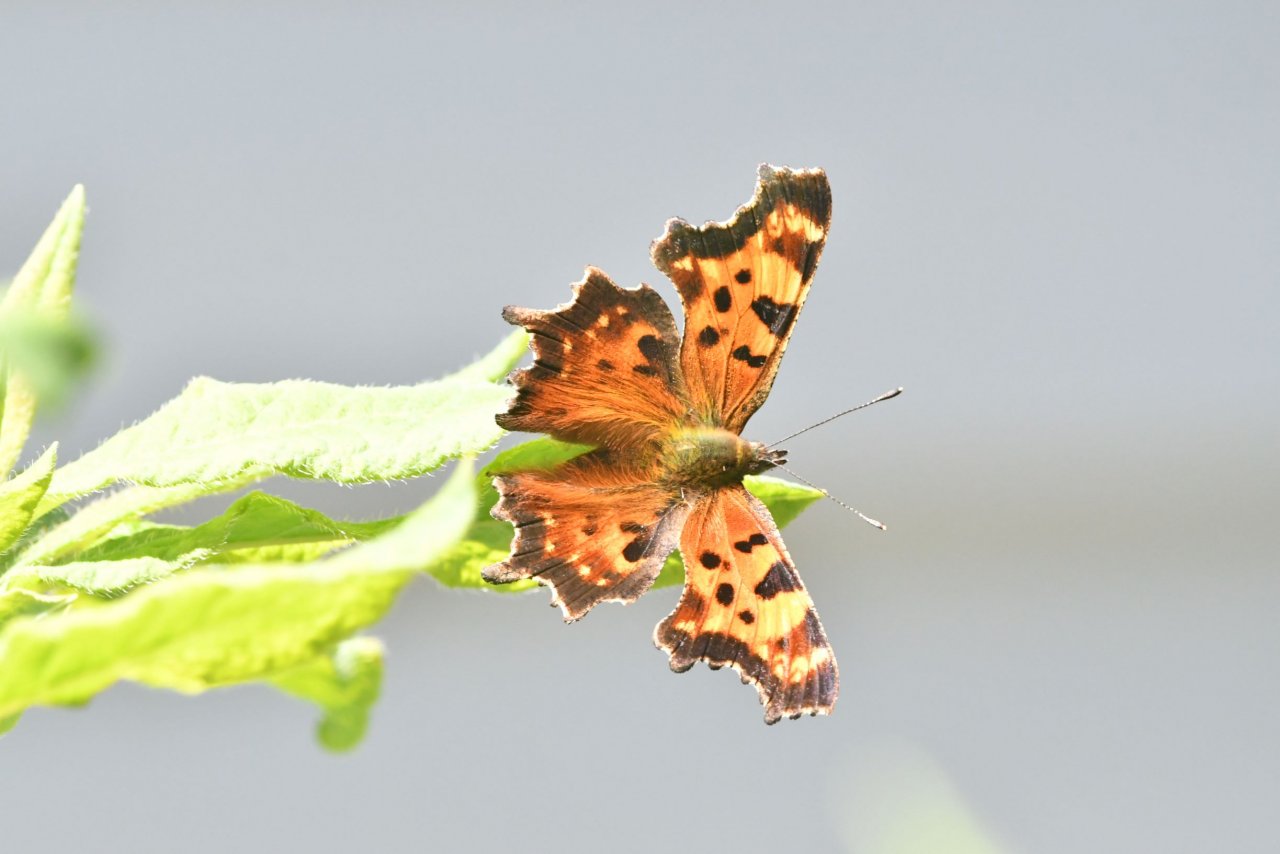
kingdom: Animalia
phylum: Arthropoda
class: Insecta
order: Lepidoptera
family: Nymphalidae
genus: Polygonia
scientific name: Polygonia faunus
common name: Green Comma
